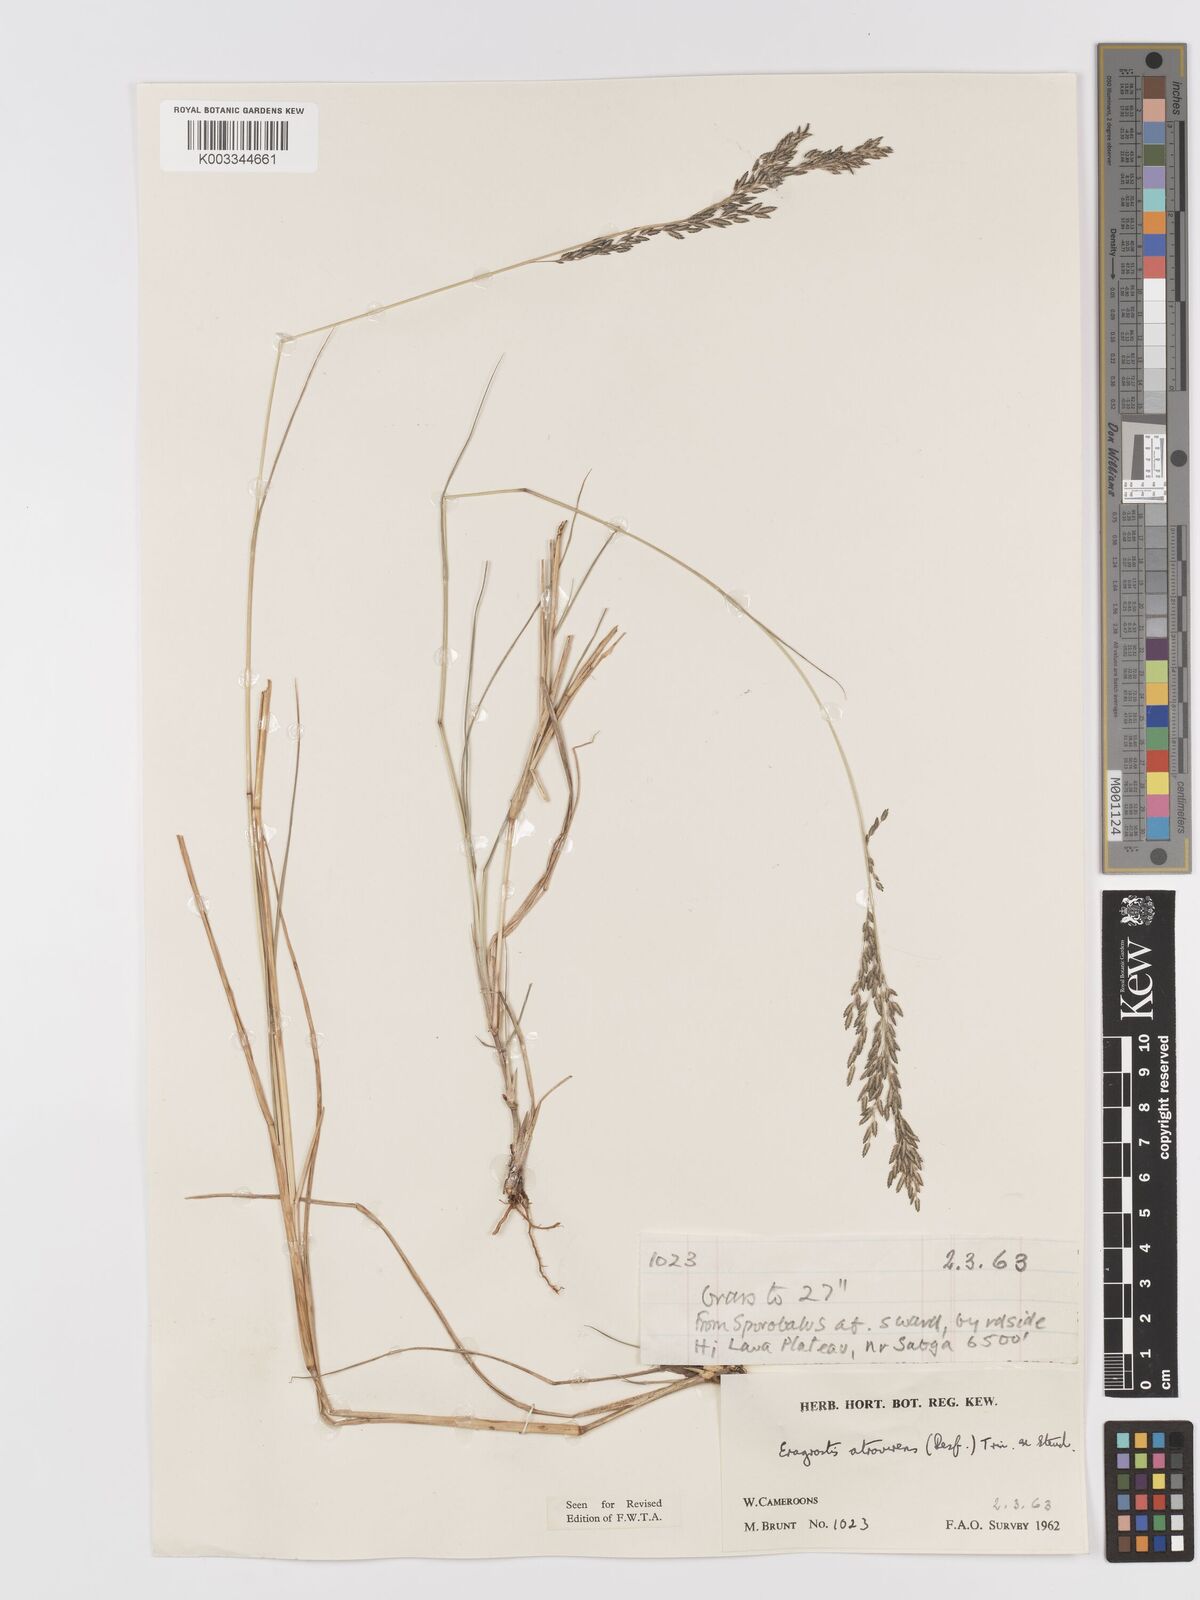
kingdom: Plantae
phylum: Tracheophyta
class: Liliopsida
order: Poales
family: Poaceae
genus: Eragrostis
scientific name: Eragrostis atrovirens
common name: Thalia lovegrass
